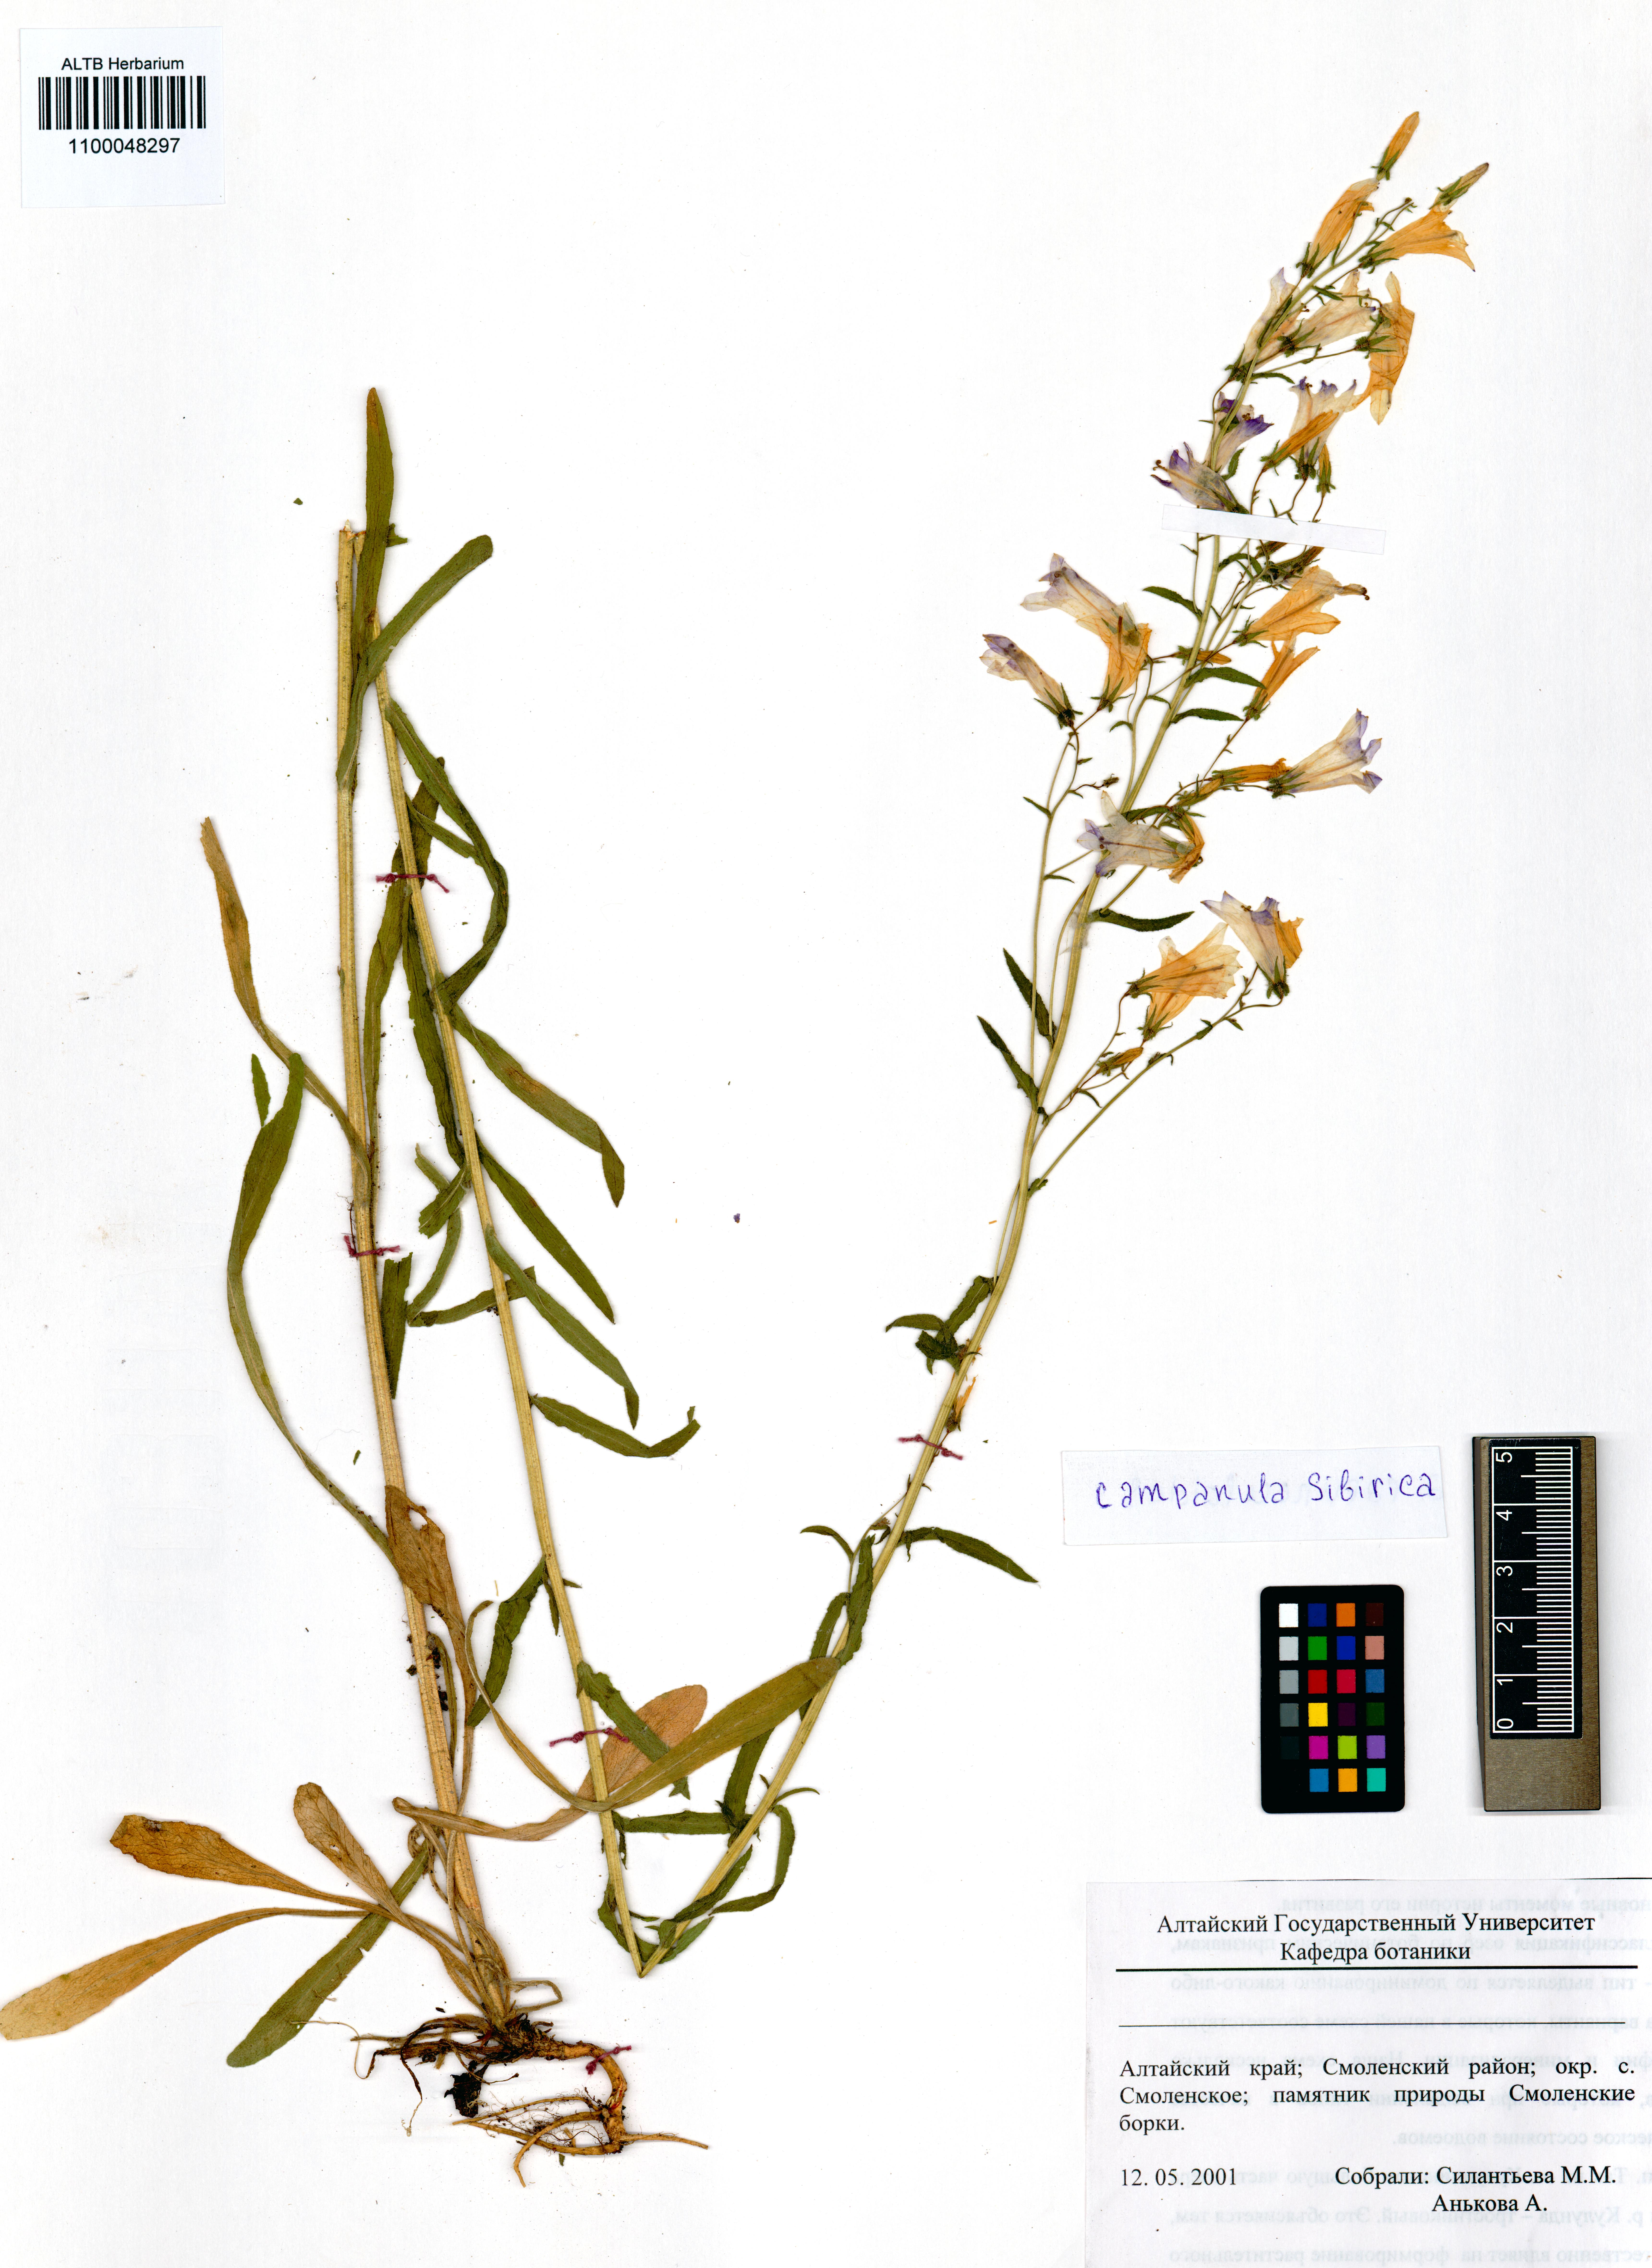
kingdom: Plantae
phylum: Tracheophyta
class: Magnoliopsida
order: Asterales
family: Campanulaceae
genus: Campanula
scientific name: Campanula sibirica
